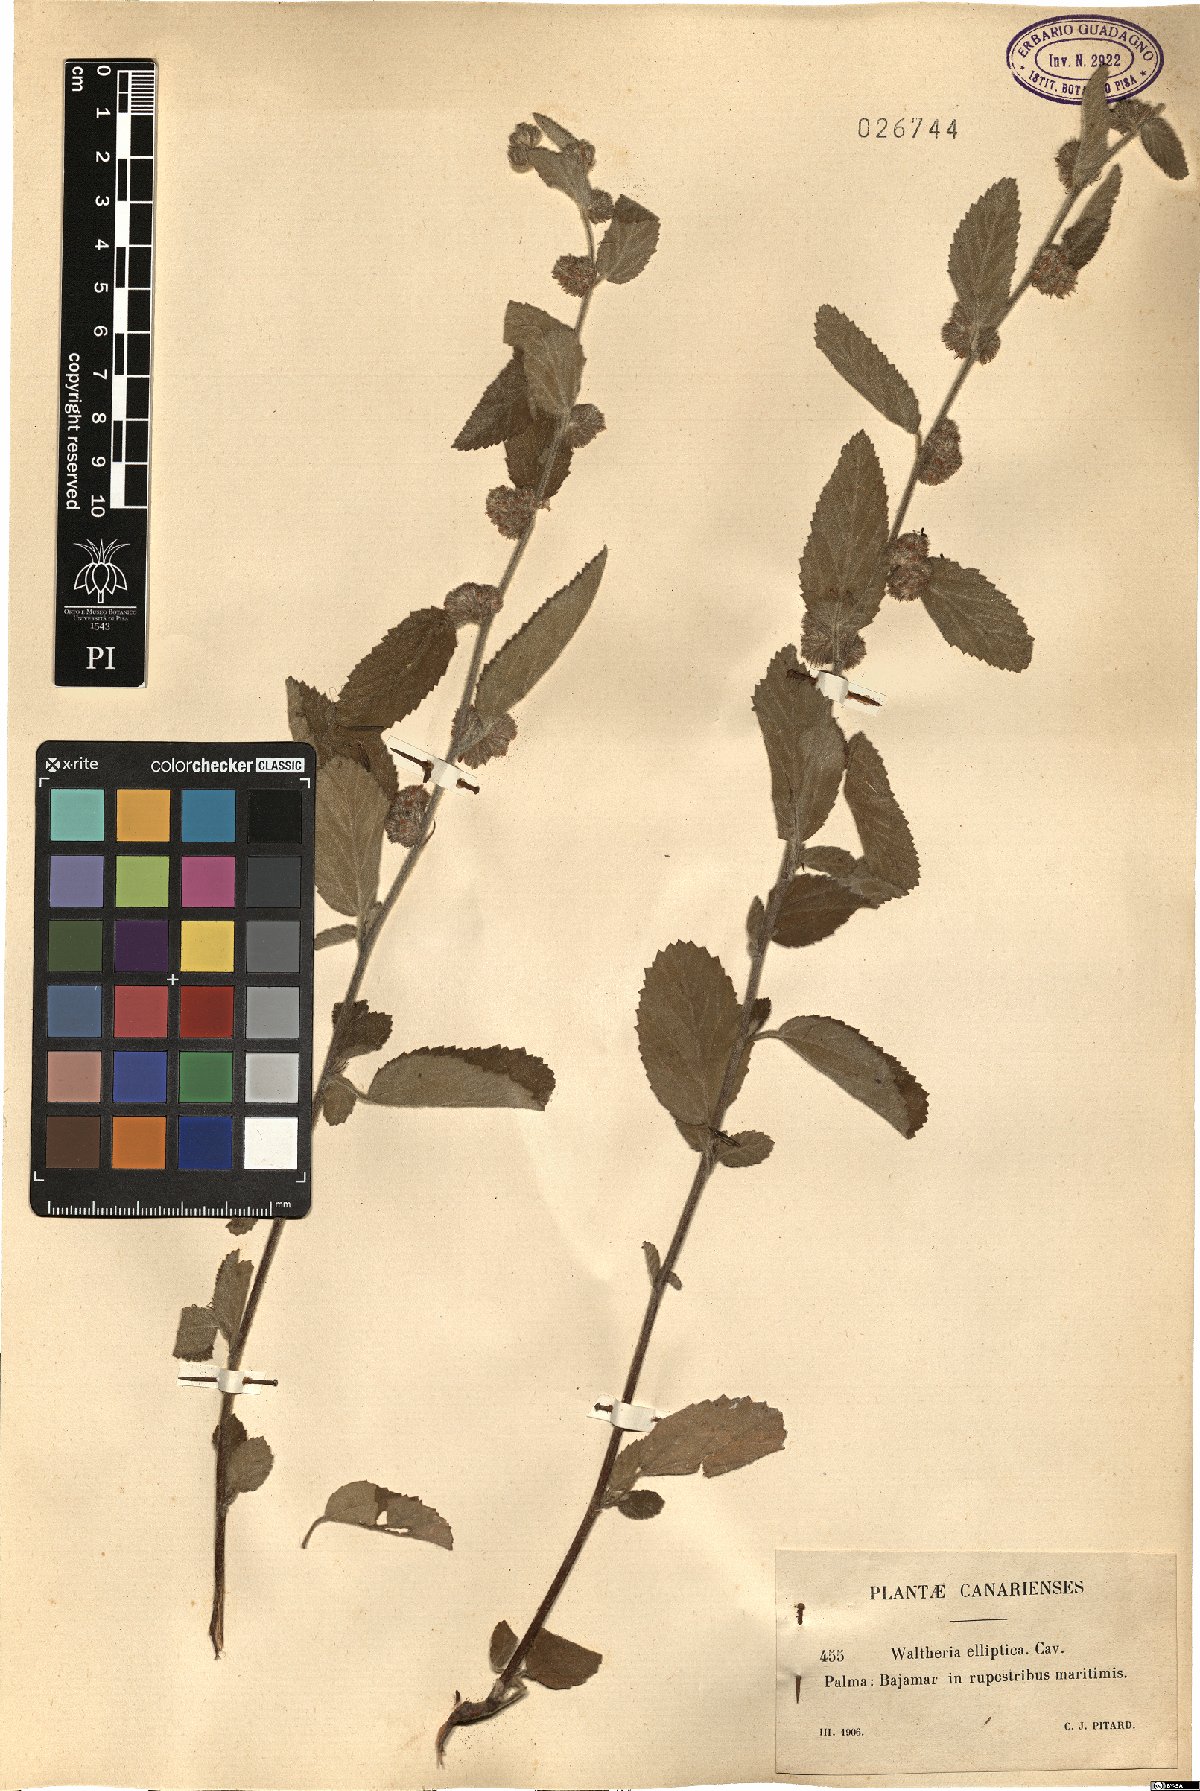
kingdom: Plantae
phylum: Tracheophyta
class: Magnoliopsida
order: Malvales
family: Malvaceae
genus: Waltheria
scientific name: Waltheria indica
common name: Leather-coat
